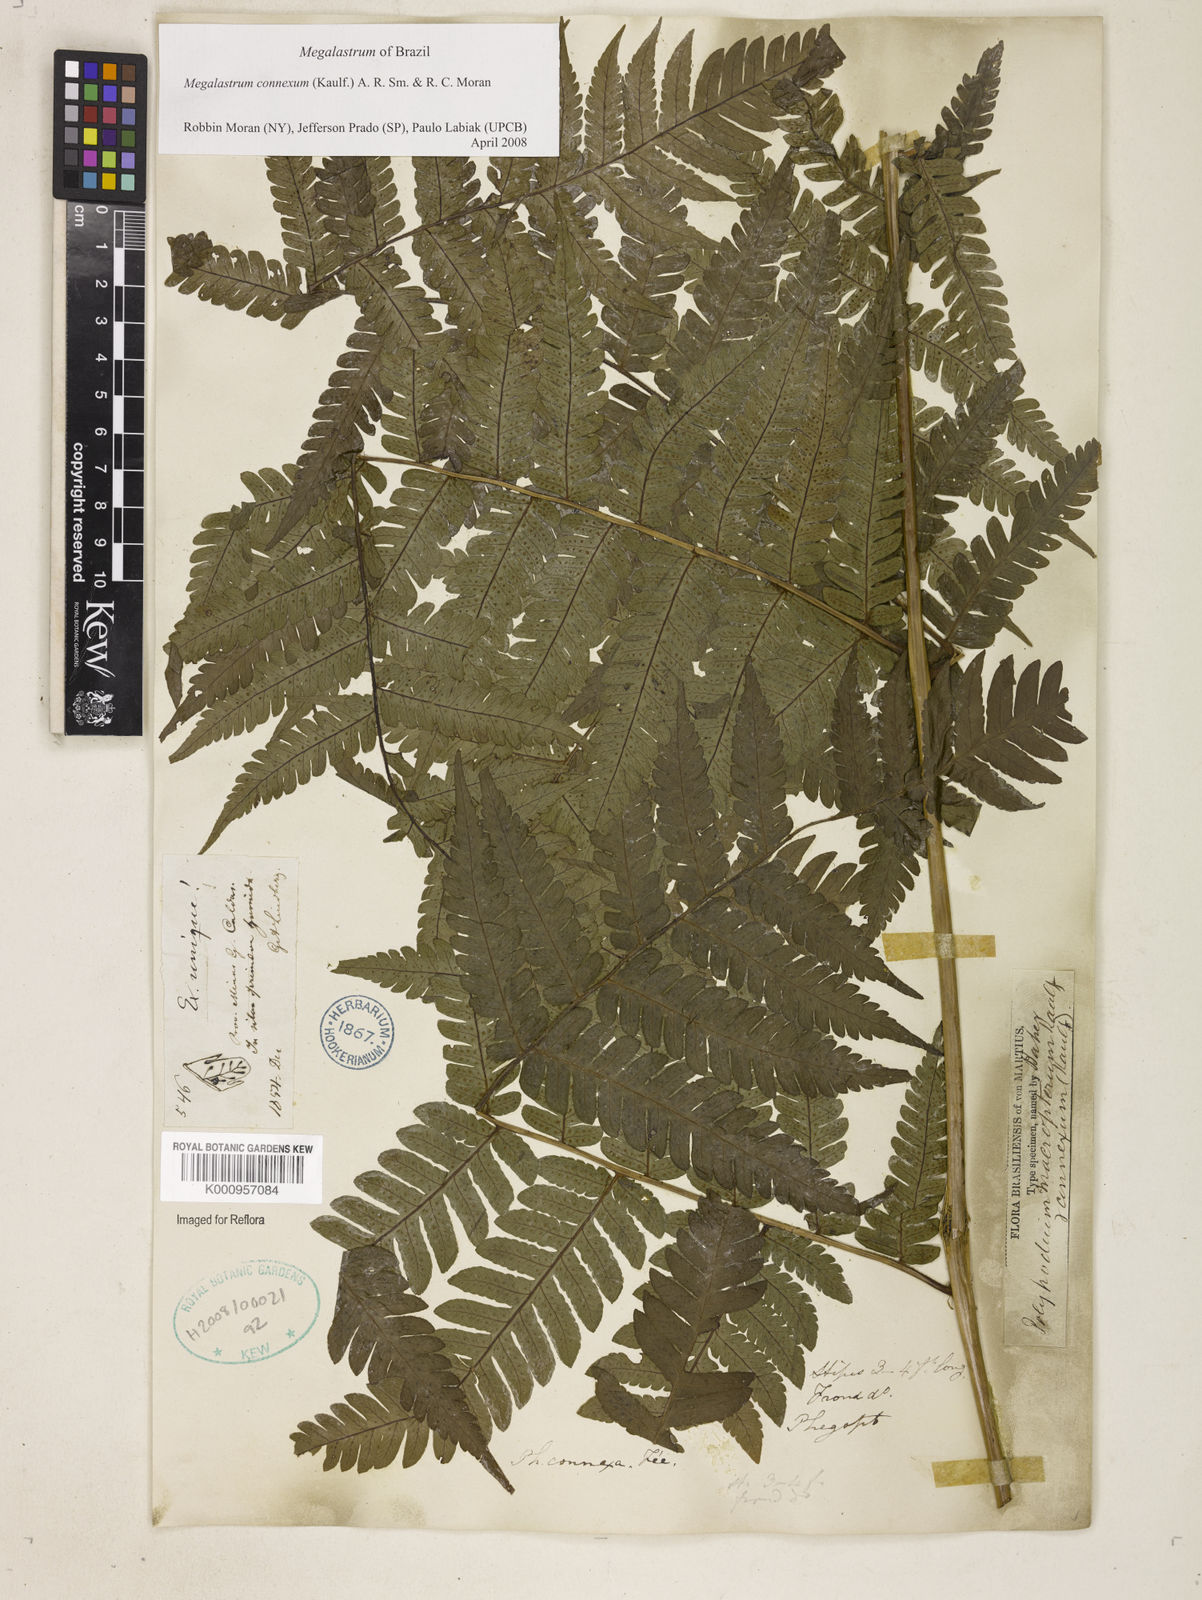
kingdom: Plantae
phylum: Tracheophyta
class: Polypodiopsida
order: Polypodiales
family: Dryopteridaceae
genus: Megalastrum
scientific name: Megalastrum connexum
